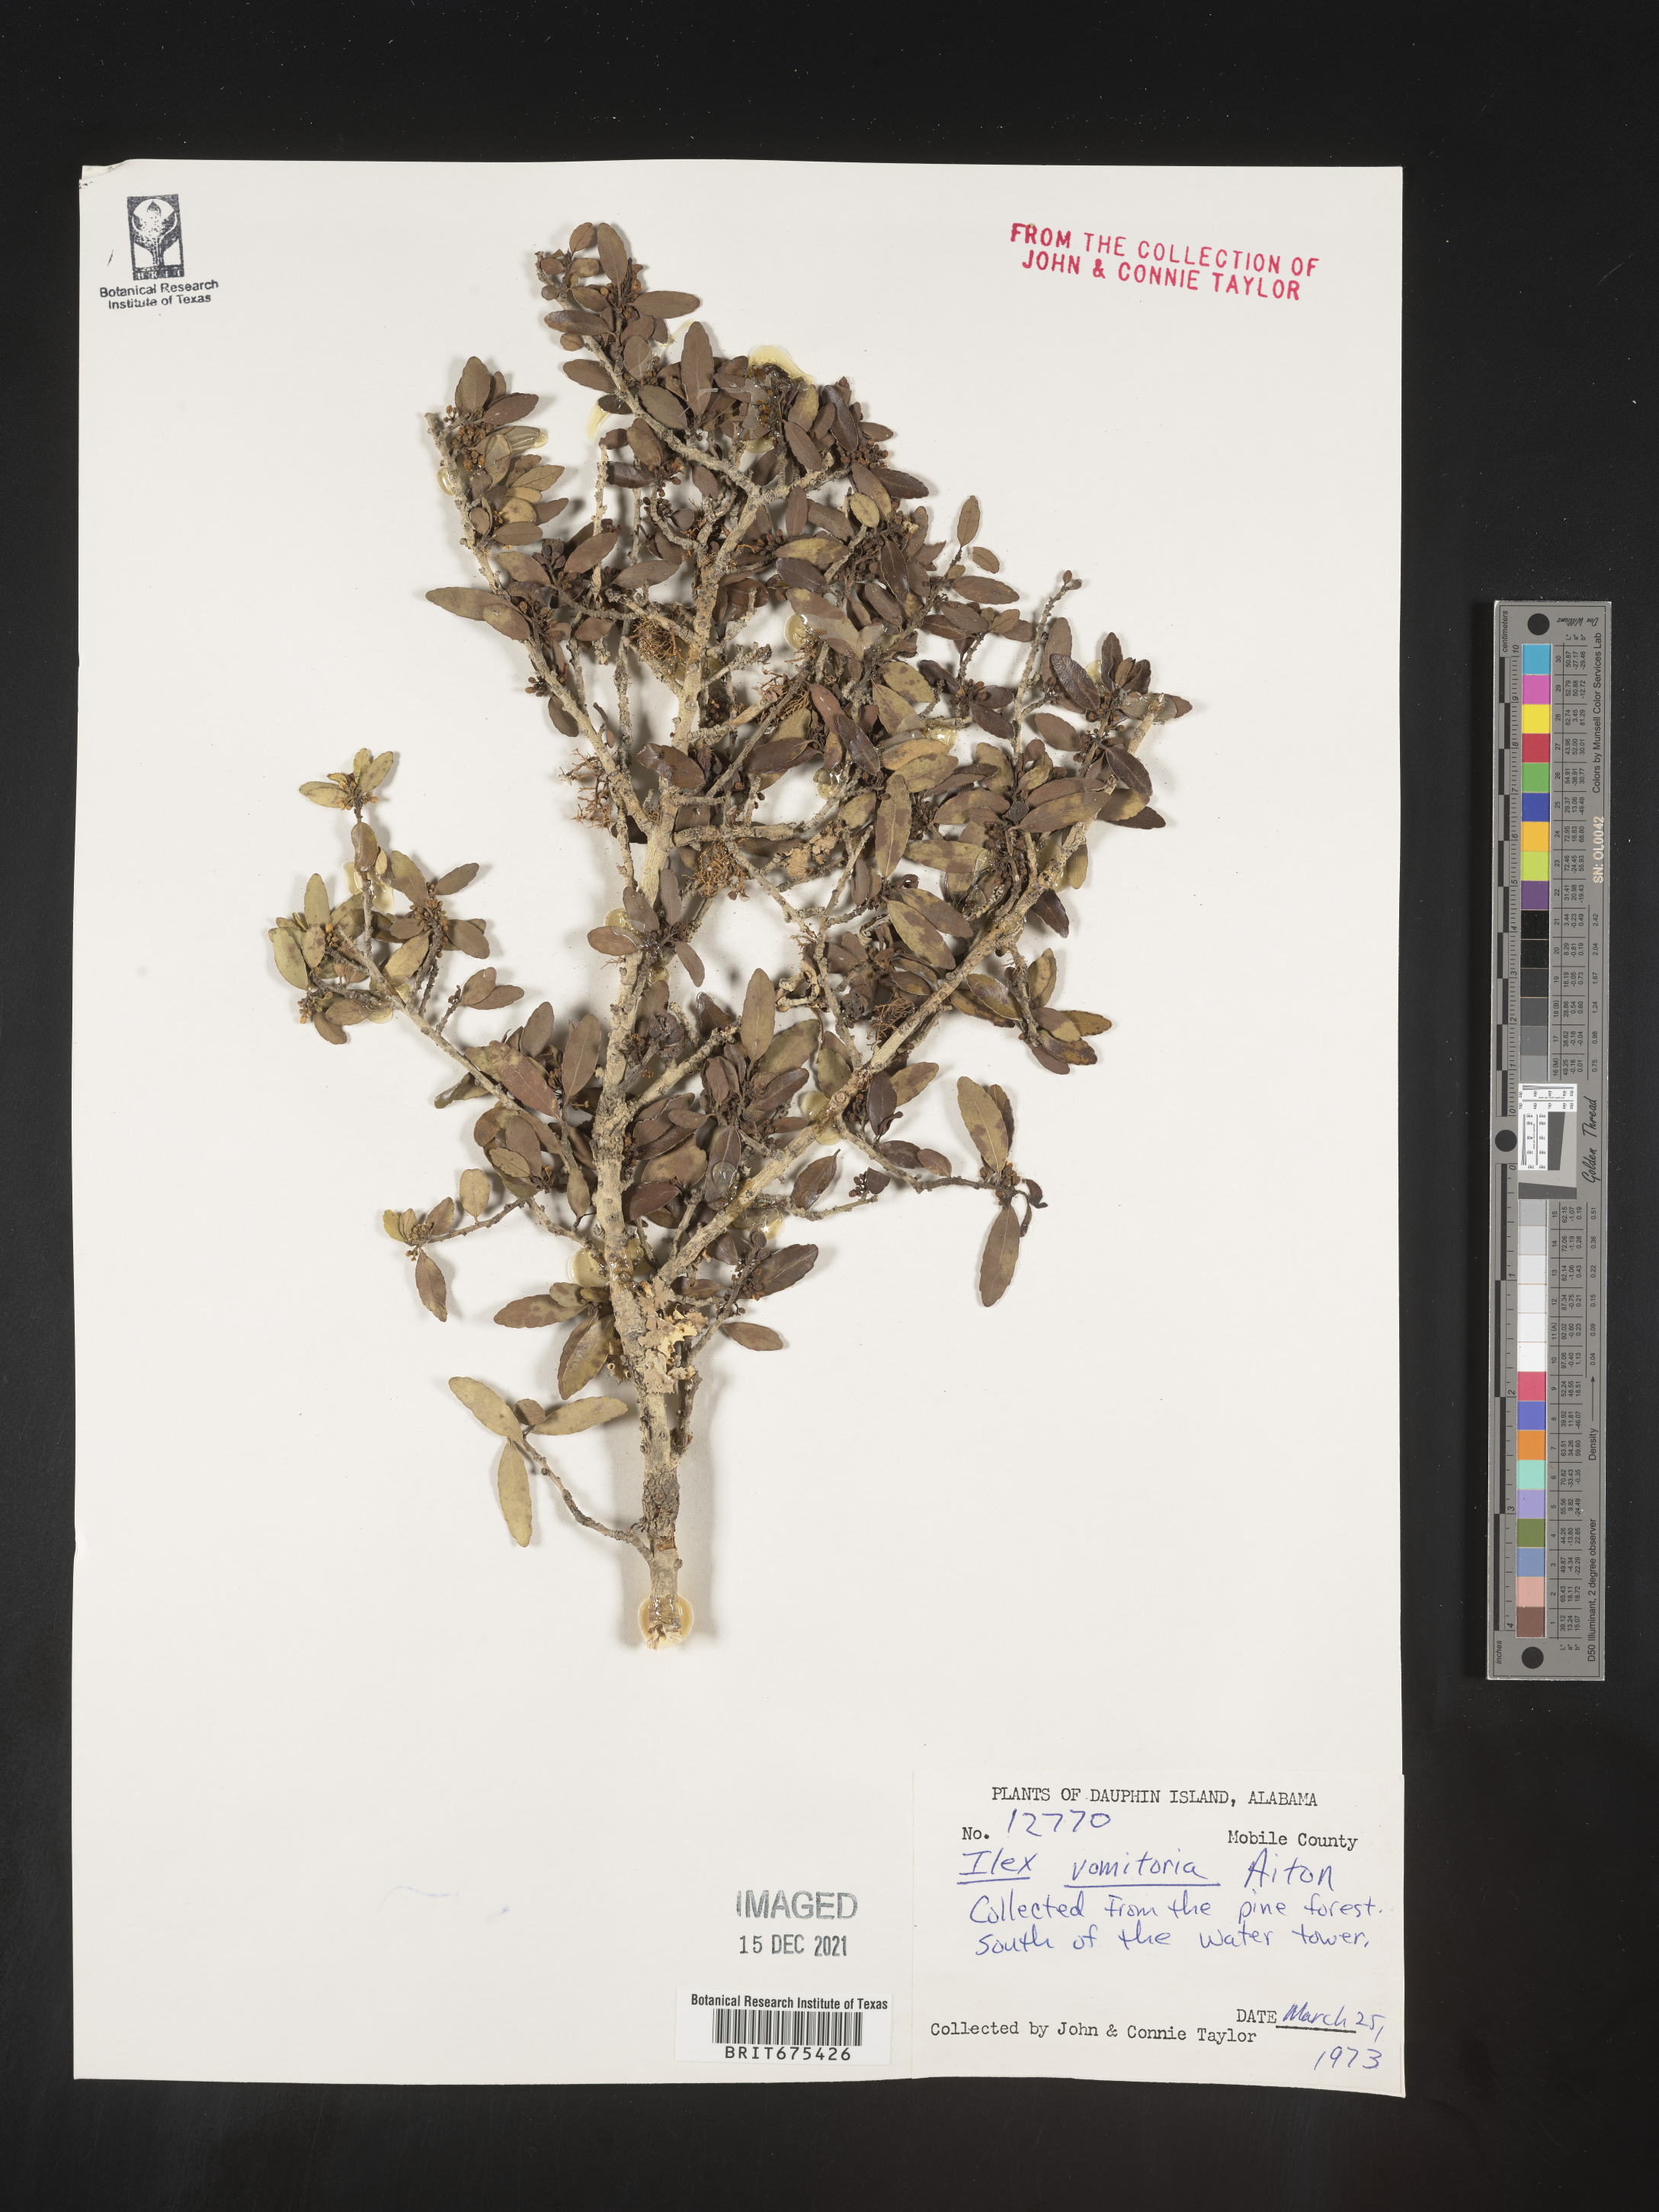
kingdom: Plantae
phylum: Tracheophyta
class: Magnoliopsida
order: Aquifoliales
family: Aquifoliaceae
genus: Ilex
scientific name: Ilex vomitoria
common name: Yaupon holly
